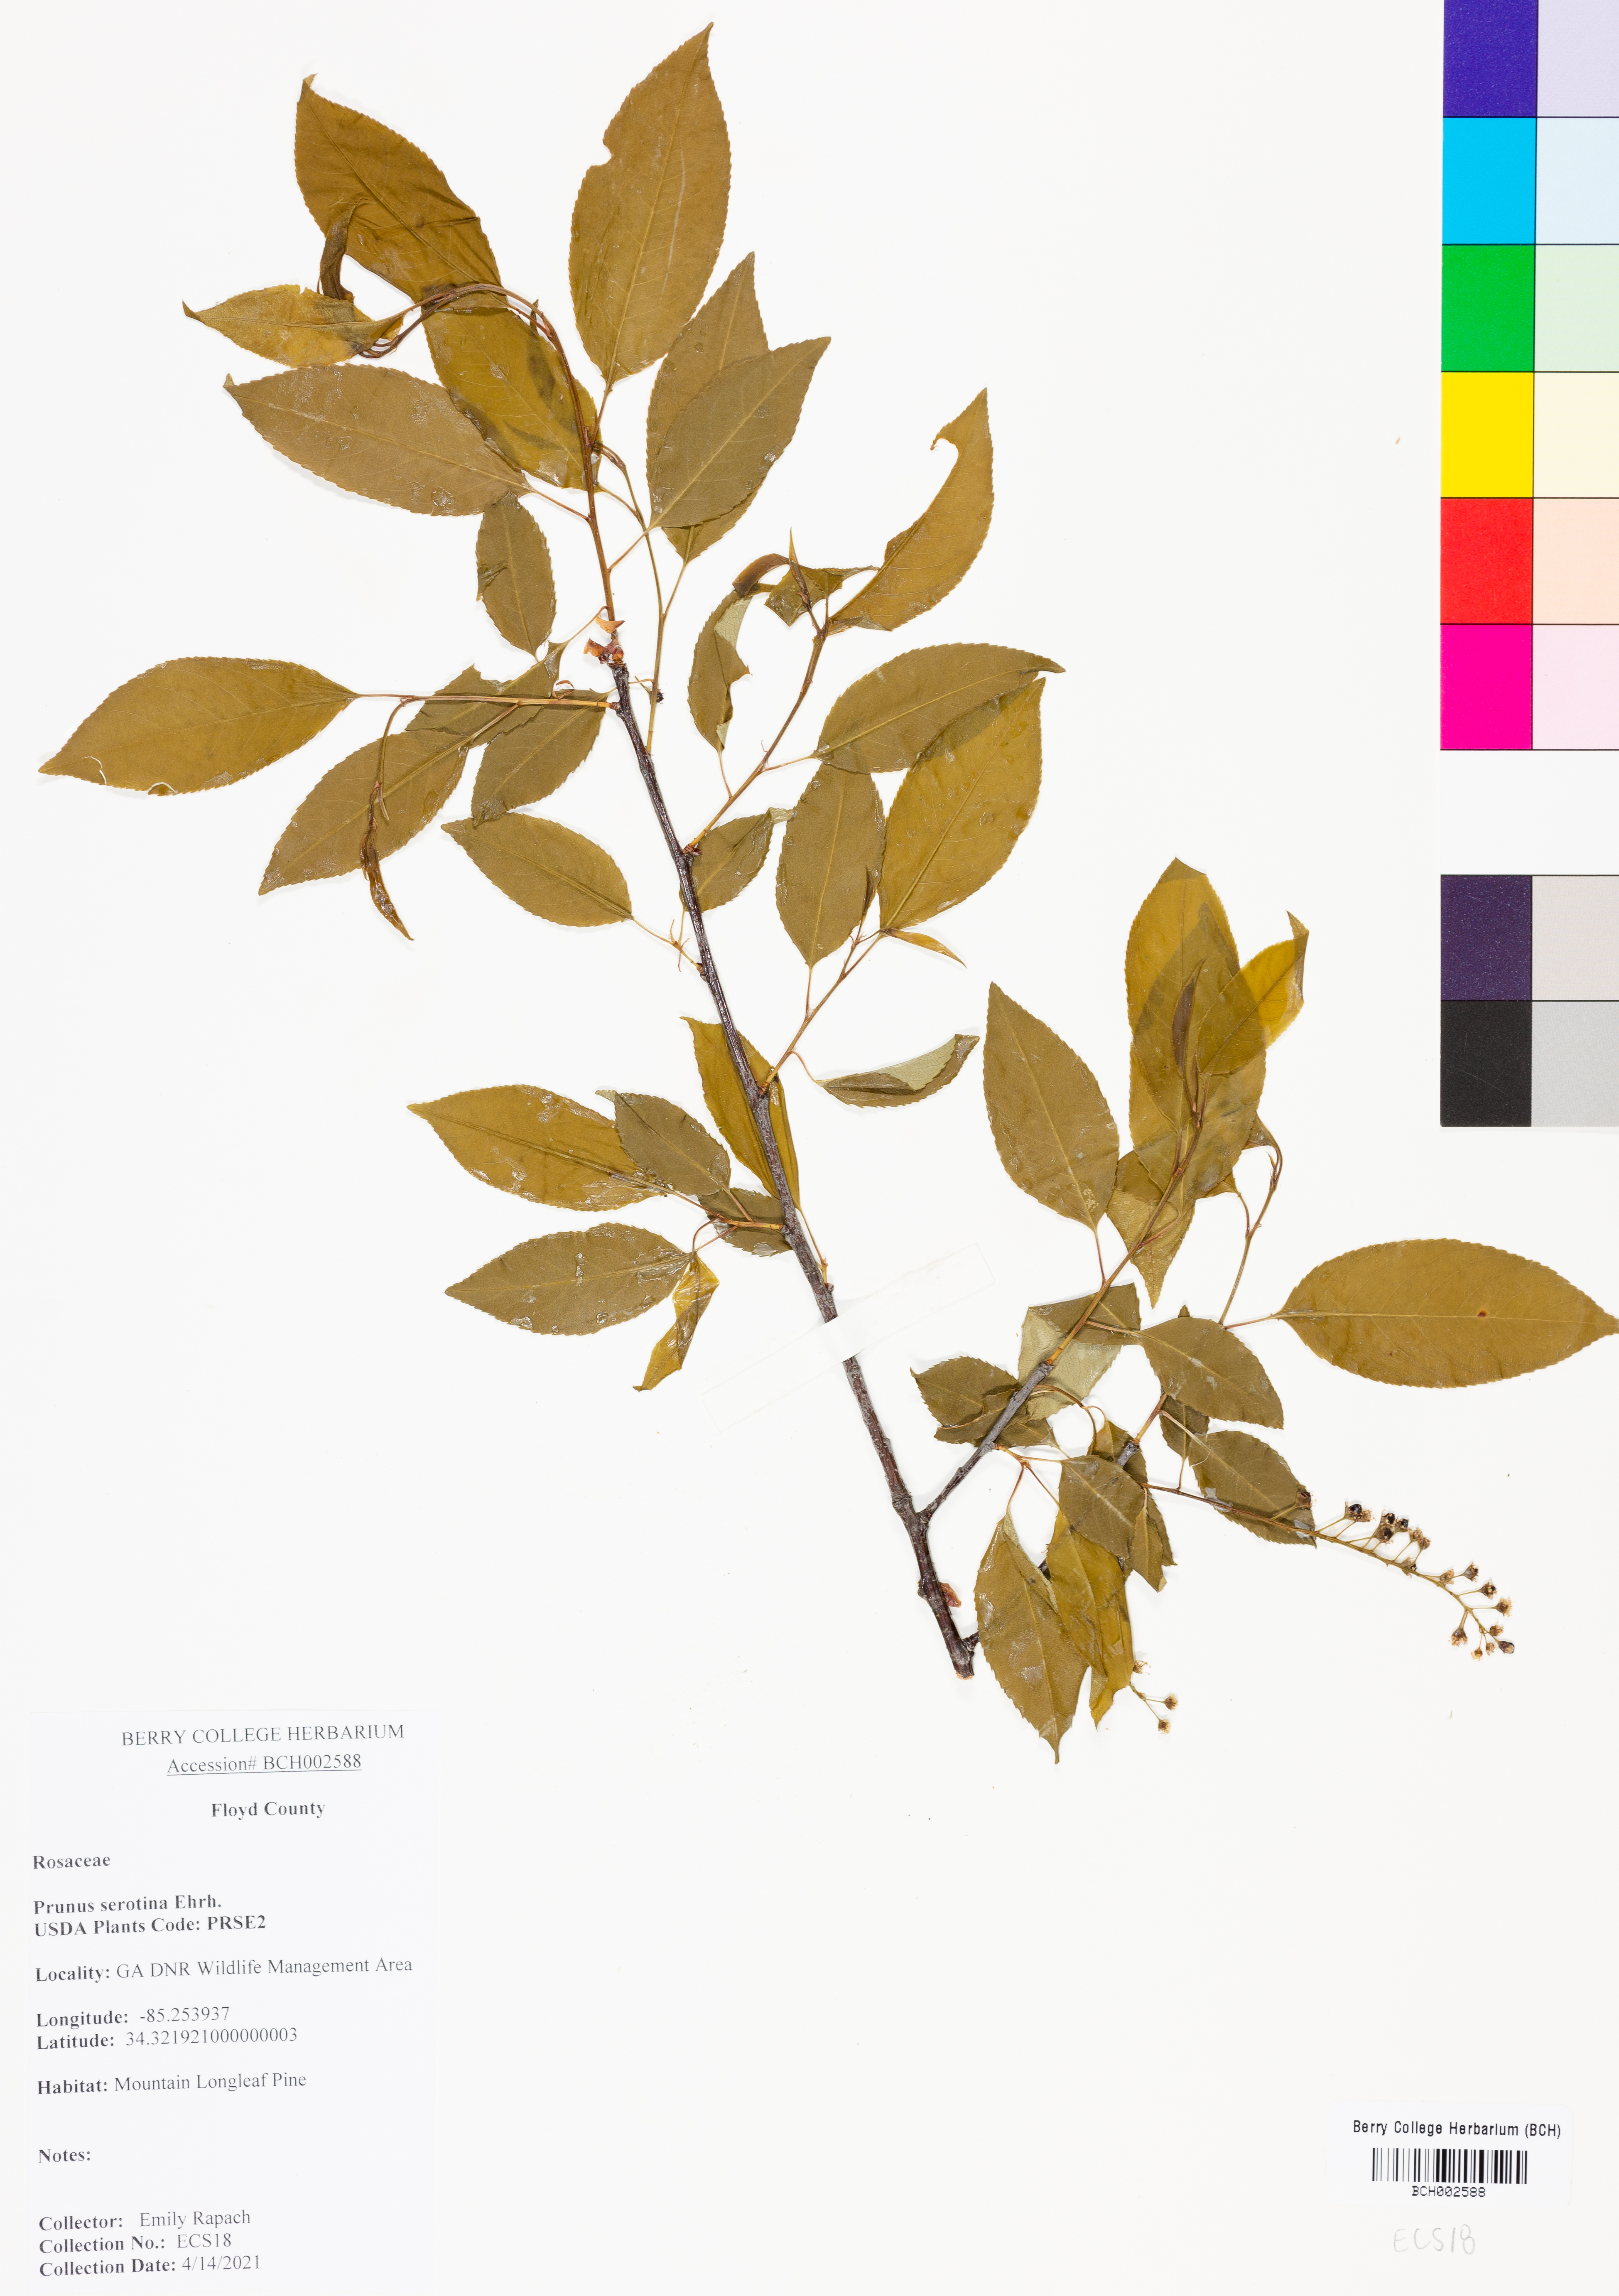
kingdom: Plantae
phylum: Tracheophyta
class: Magnoliopsida
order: Rosales
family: Rosaceae
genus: Prunus
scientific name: Prunus serotina
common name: Black cherry
